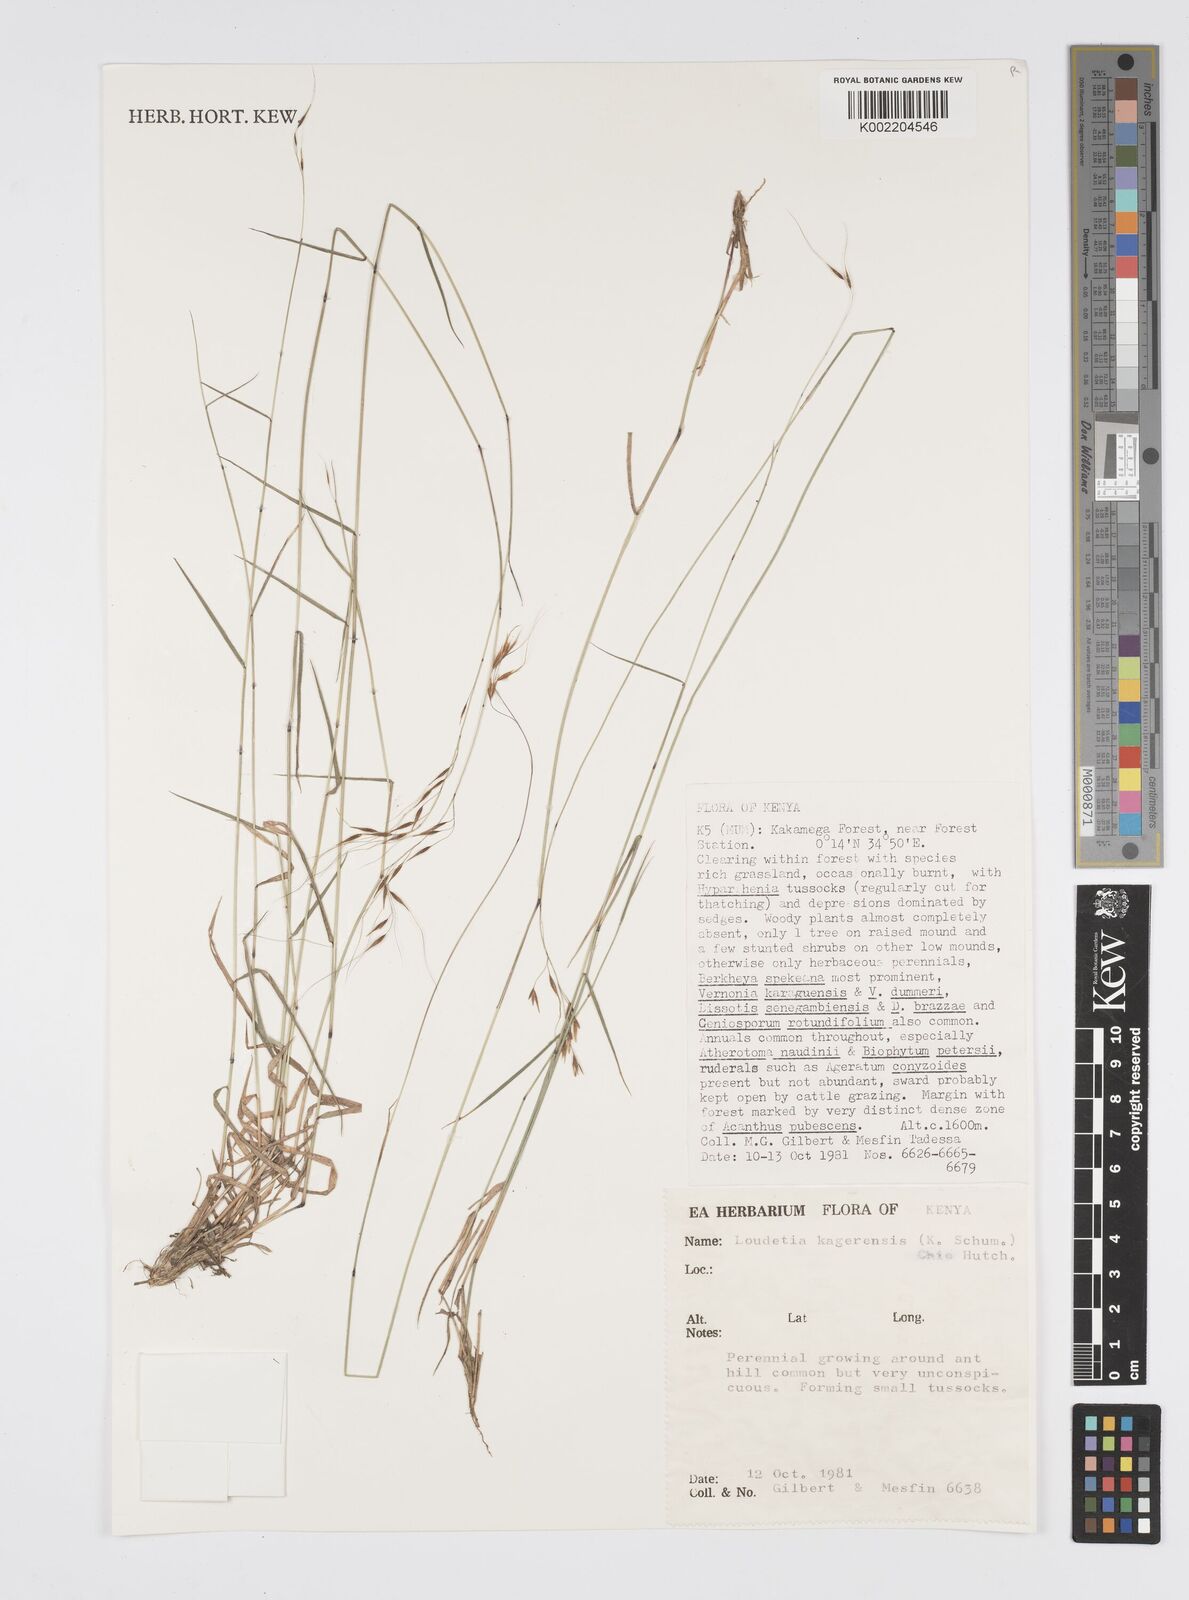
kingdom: Plantae
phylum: Tracheophyta
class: Liliopsida
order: Poales
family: Poaceae
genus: Loudetia
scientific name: Loudetia kagerensis
